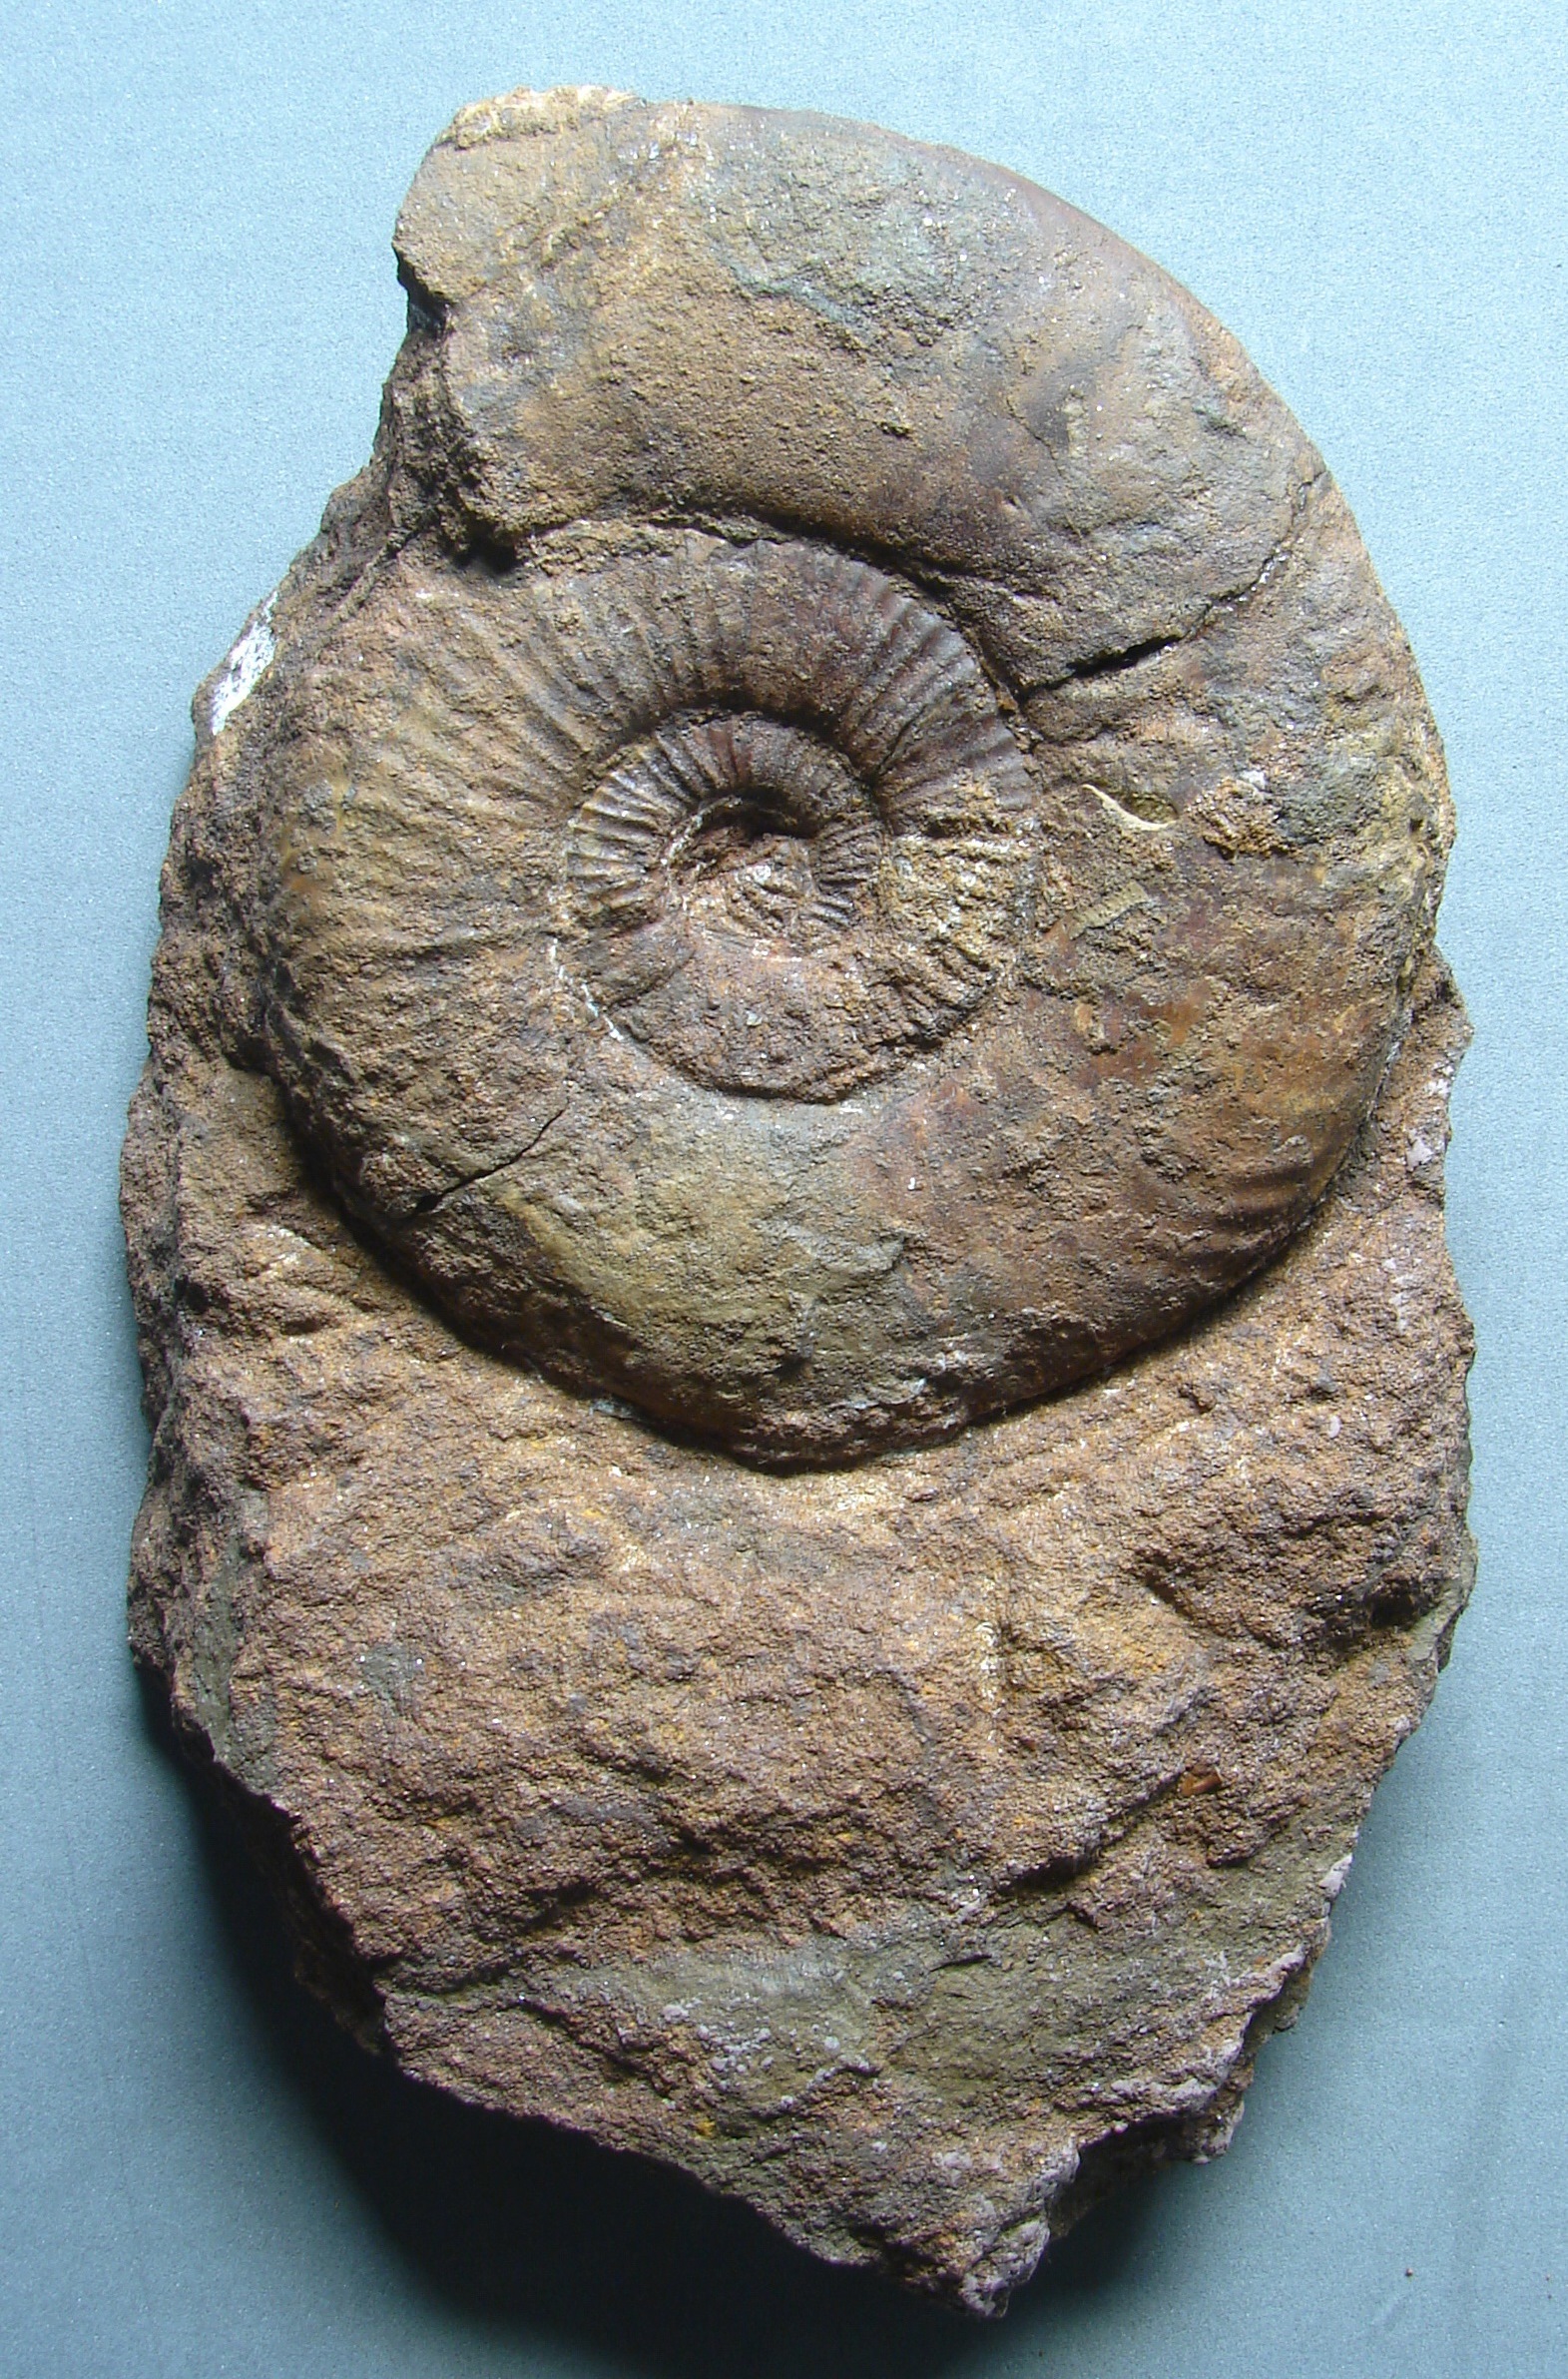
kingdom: Animalia
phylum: Mollusca
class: Cephalopoda
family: Hildoceratidae
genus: Dumortieria
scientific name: Dumortieria moorei
